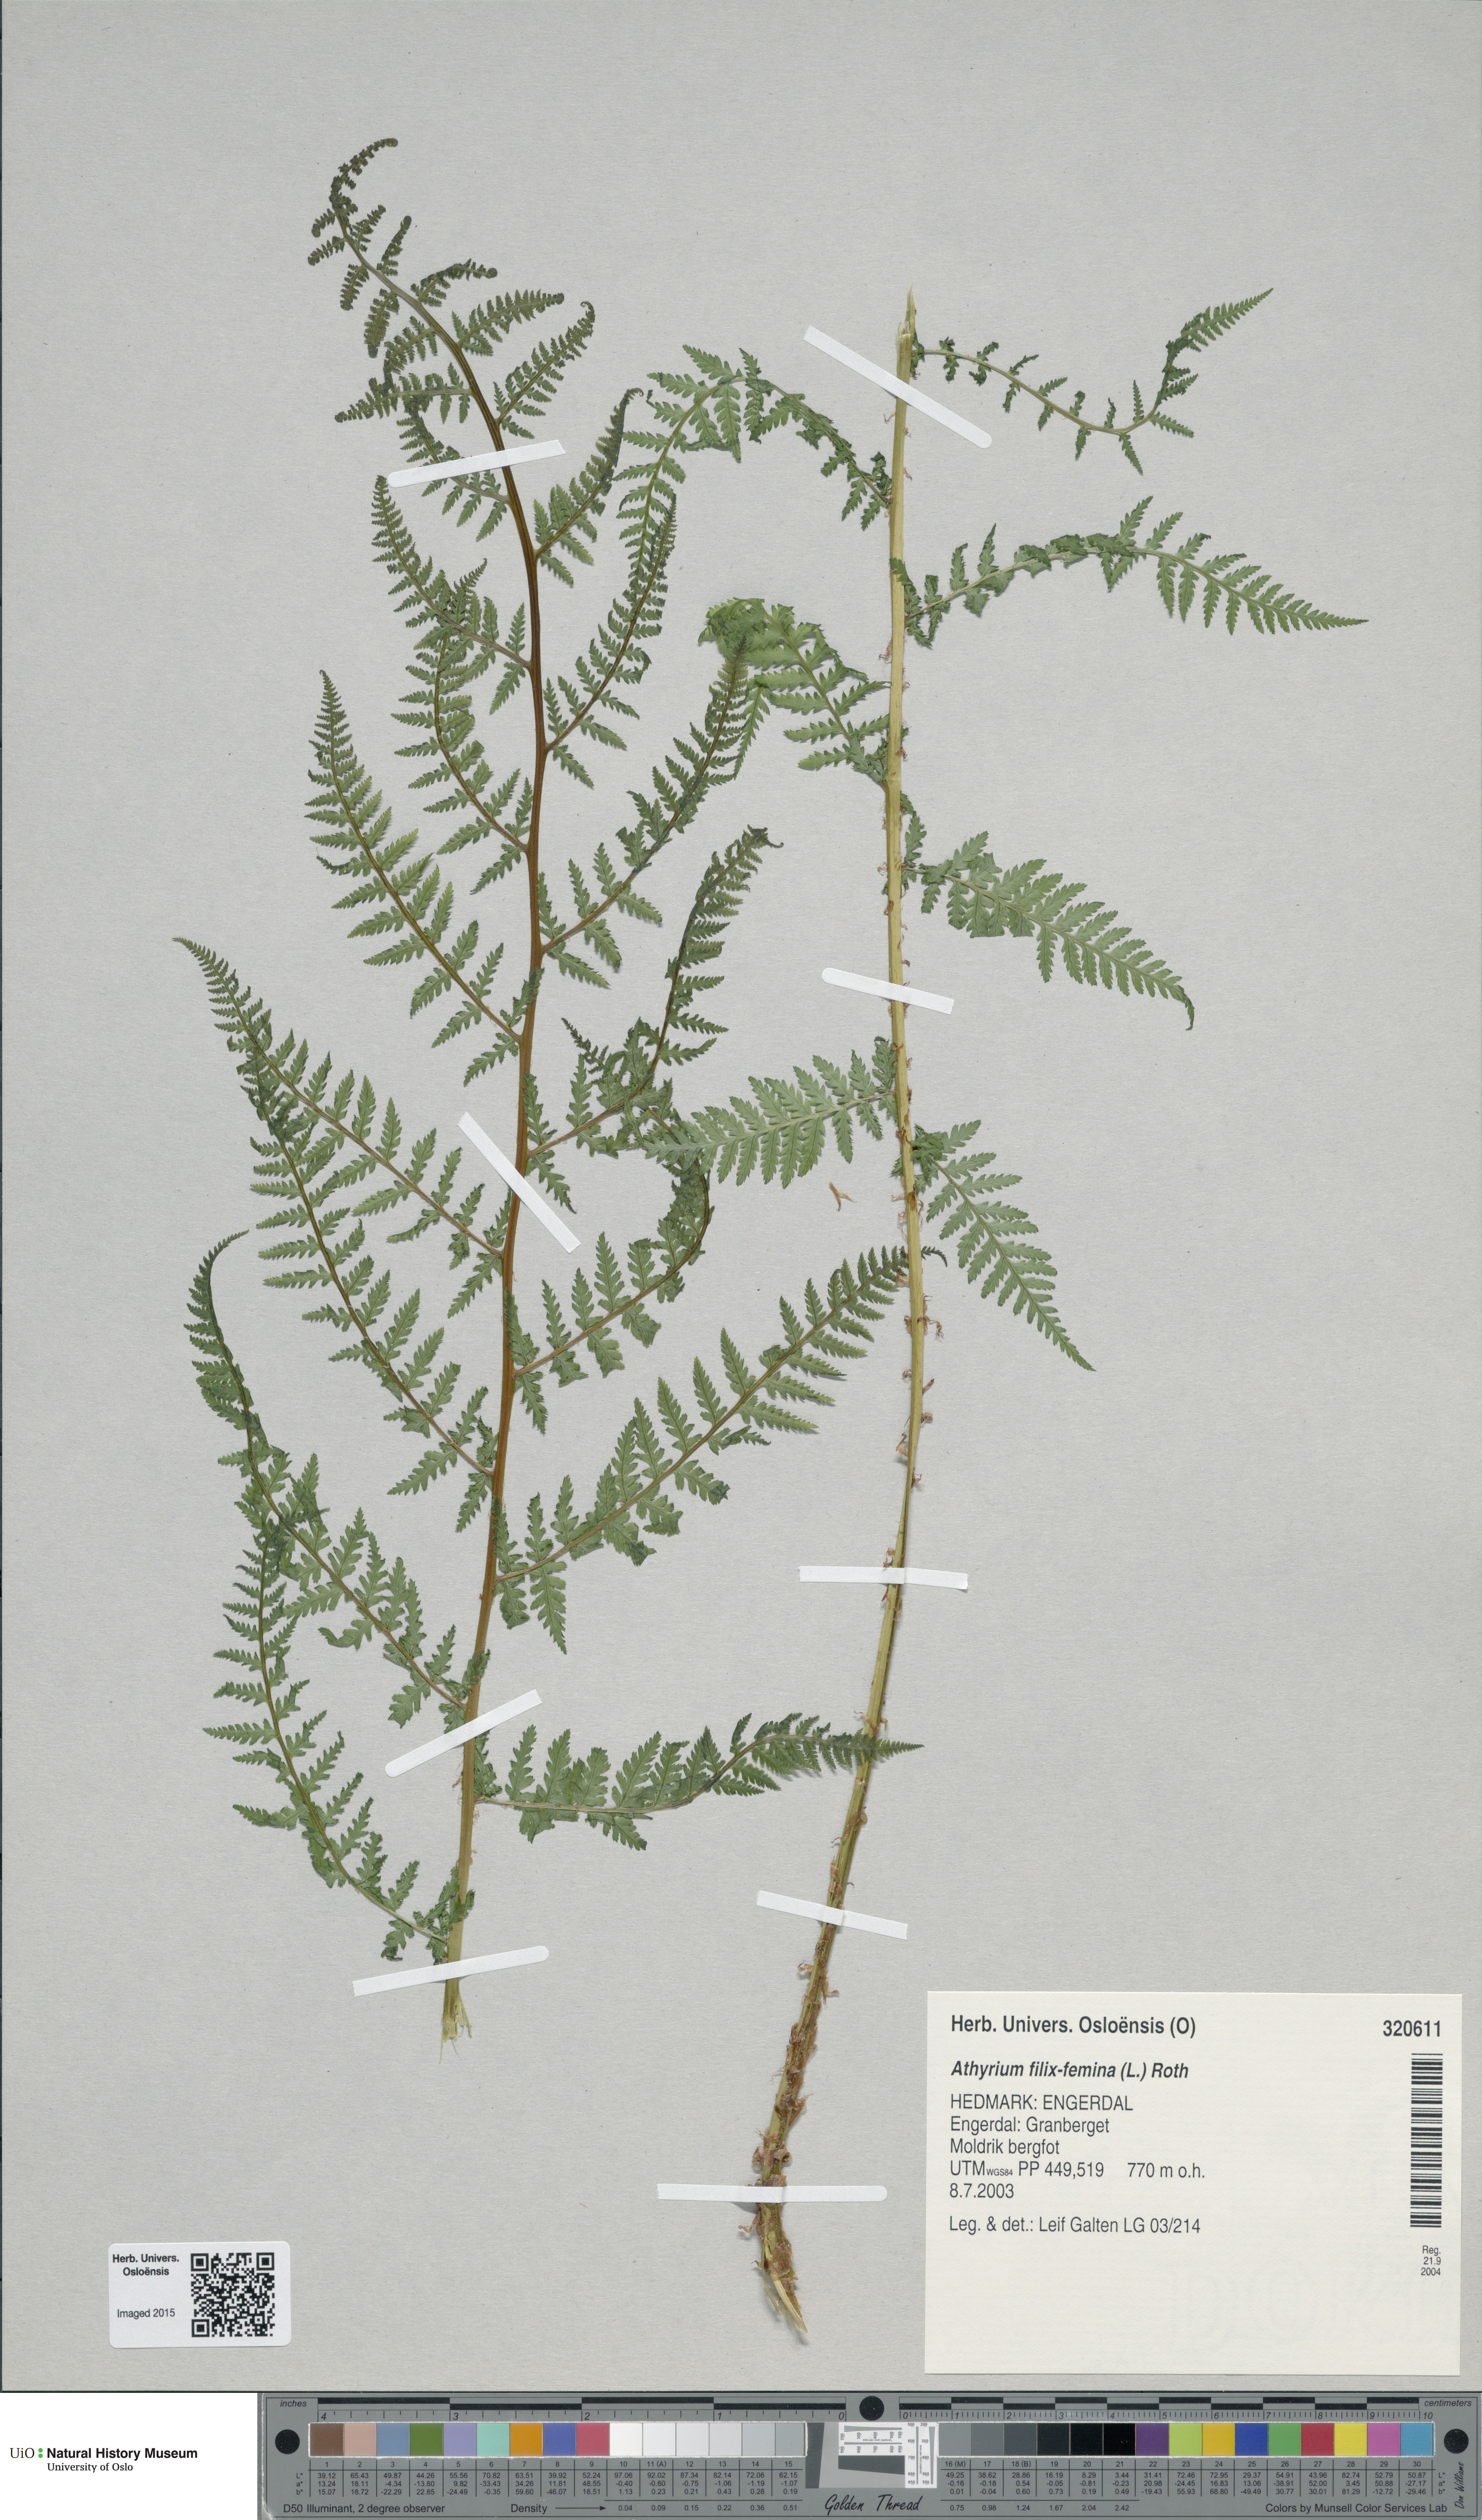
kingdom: Plantae
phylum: Tracheophyta
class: Polypodiopsida
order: Polypodiales
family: Athyriaceae
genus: Athyrium
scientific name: Athyrium filix-femina
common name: Lady fern
